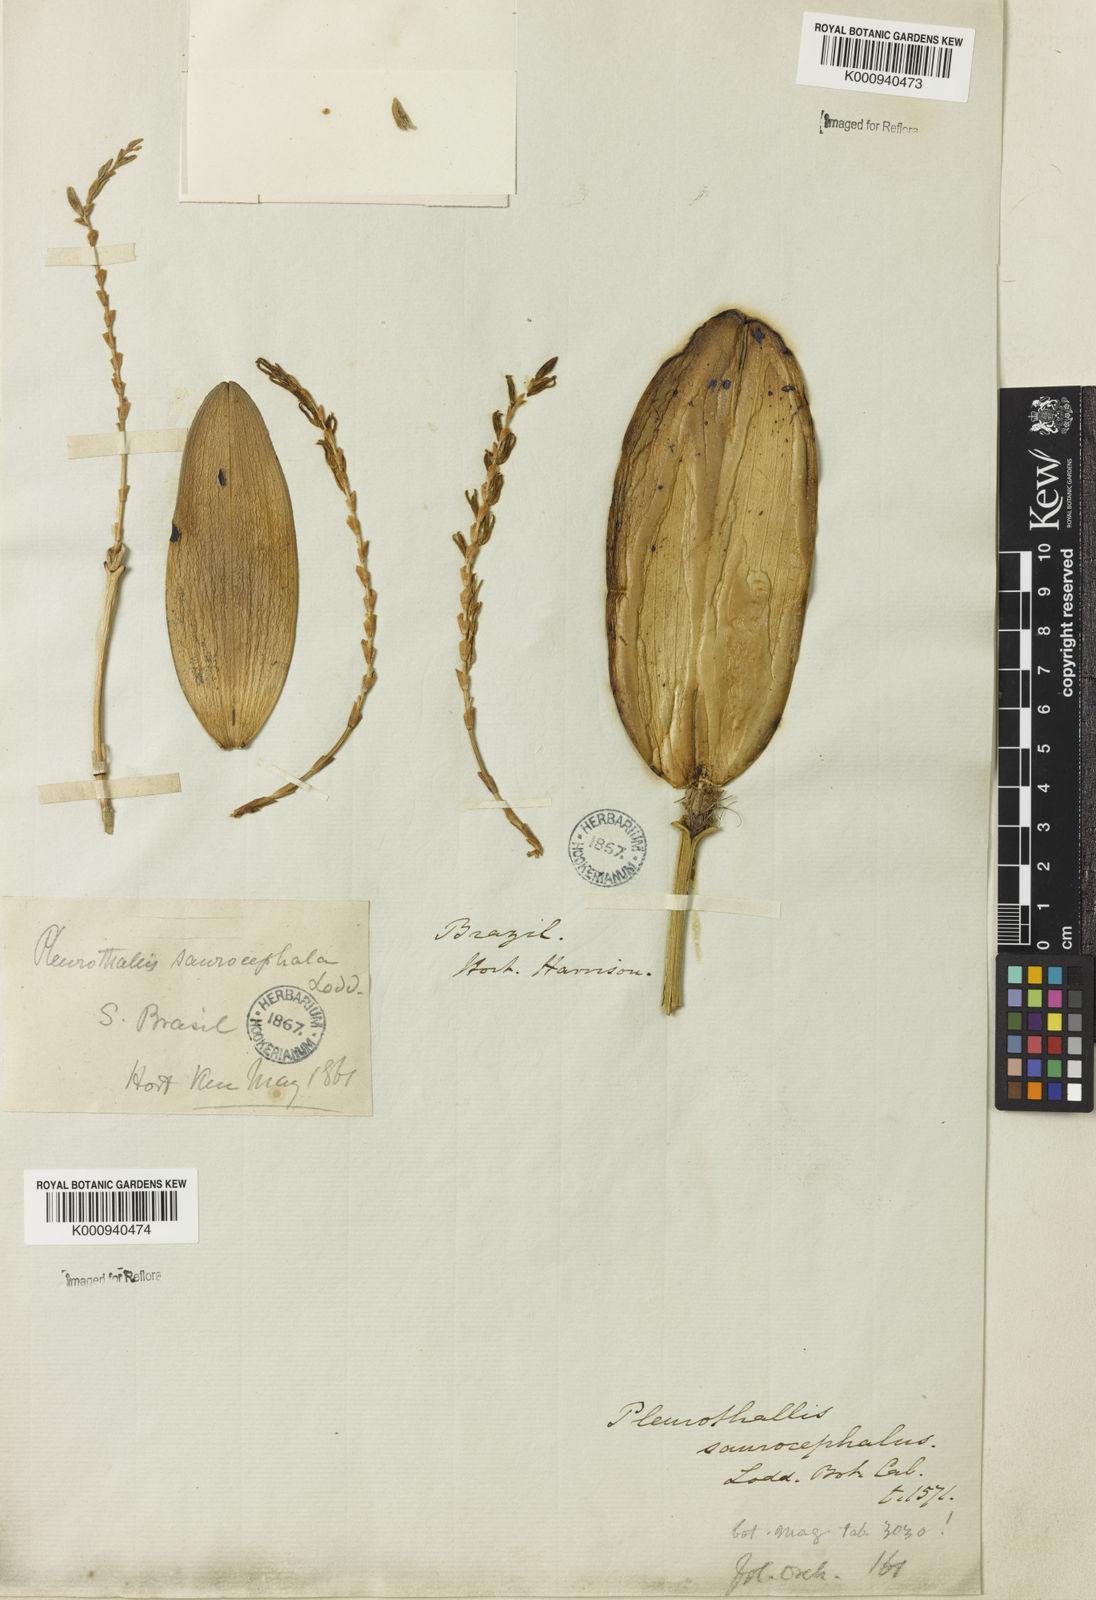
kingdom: Plantae
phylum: Tracheophyta
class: Liliopsida
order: Asparagales
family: Orchidaceae
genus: Acianthera
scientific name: Acianthera saurocephala
